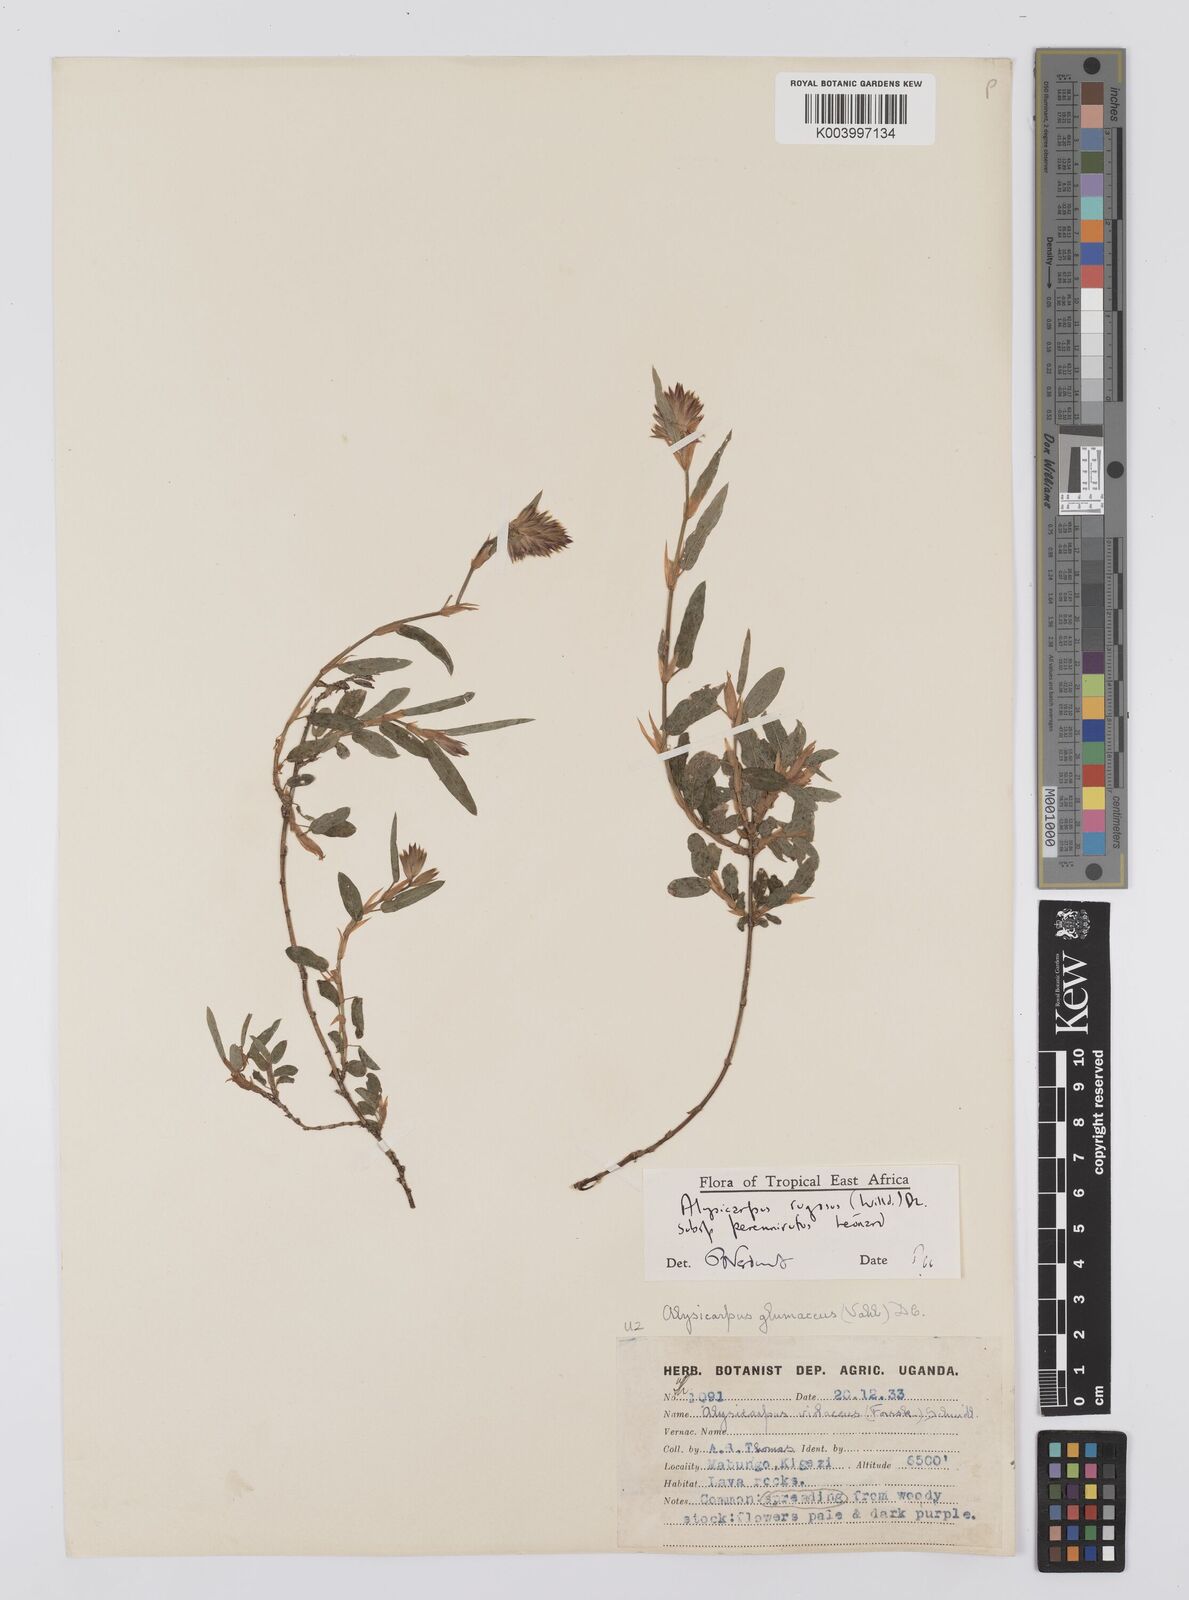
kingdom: Plantae
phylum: Tracheophyta
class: Magnoliopsida
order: Fabales
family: Fabaceae
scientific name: Fabaceae
